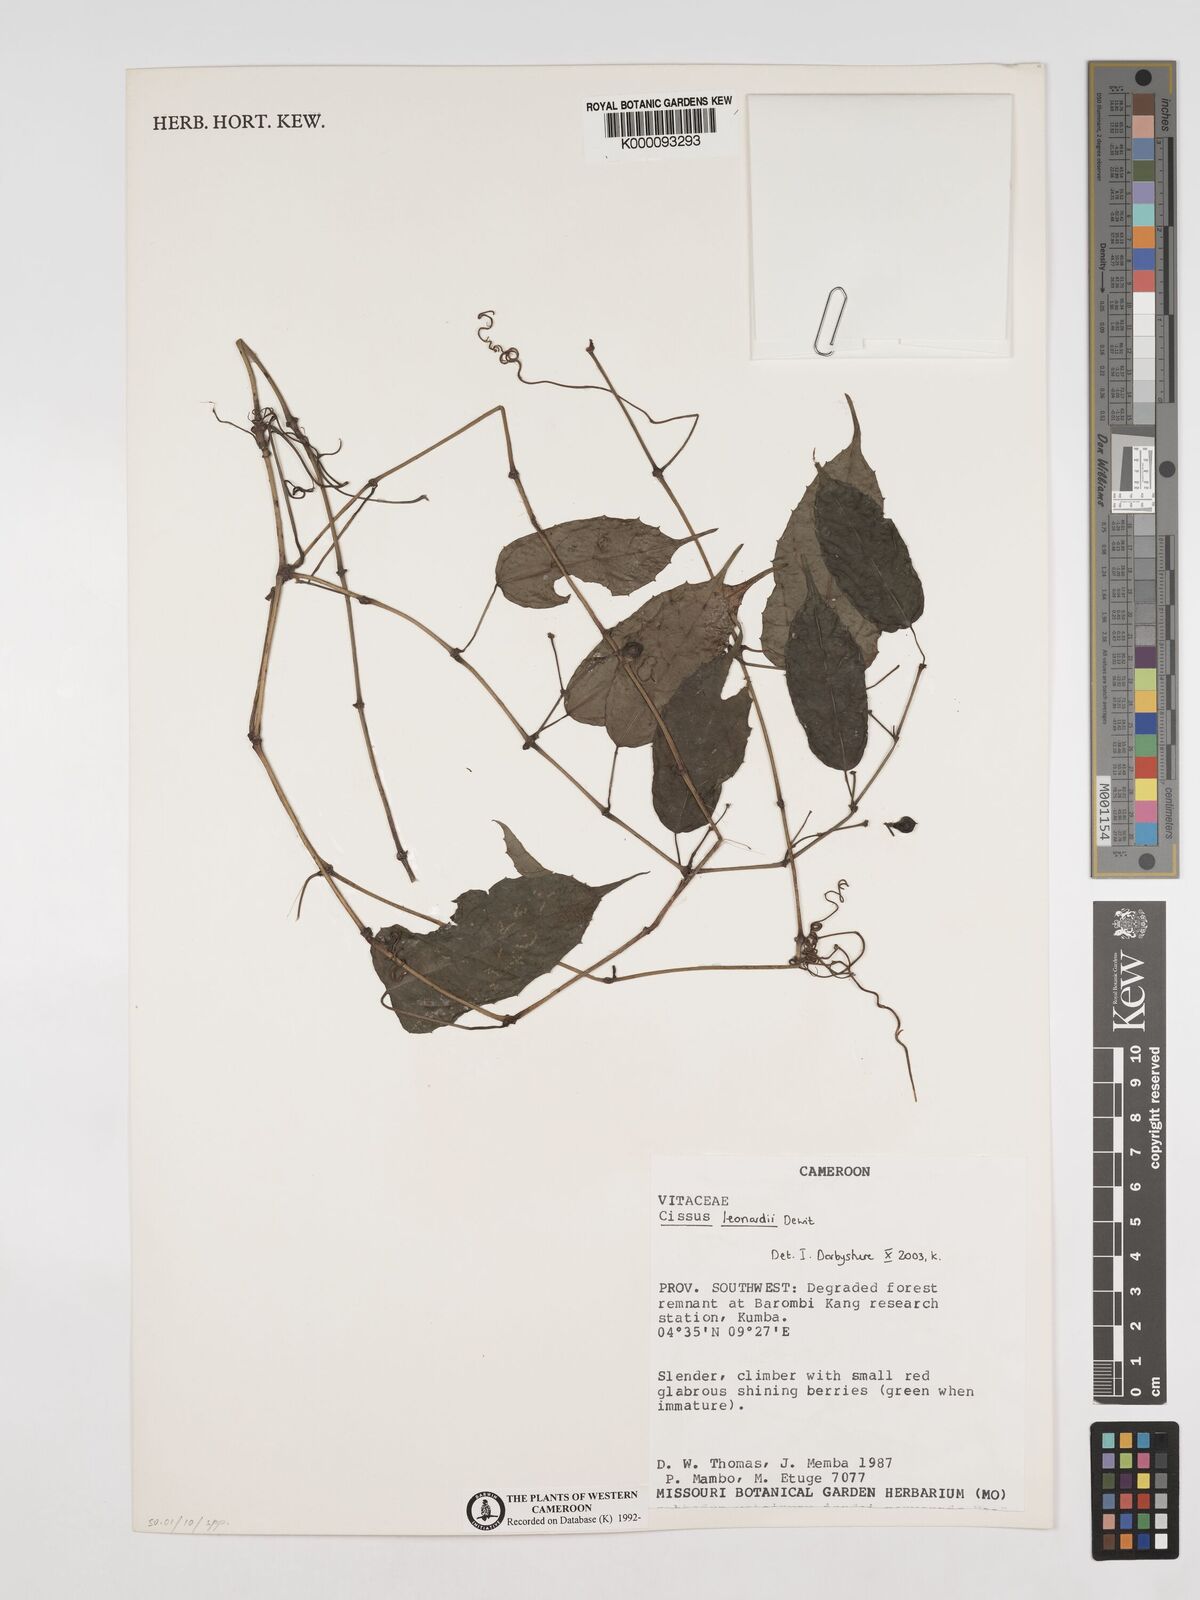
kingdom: Plantae
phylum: Tracheophyta
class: Magnoliopsida
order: Vitales
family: Vitaceae
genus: Cissus
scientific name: Cissus leonardii
